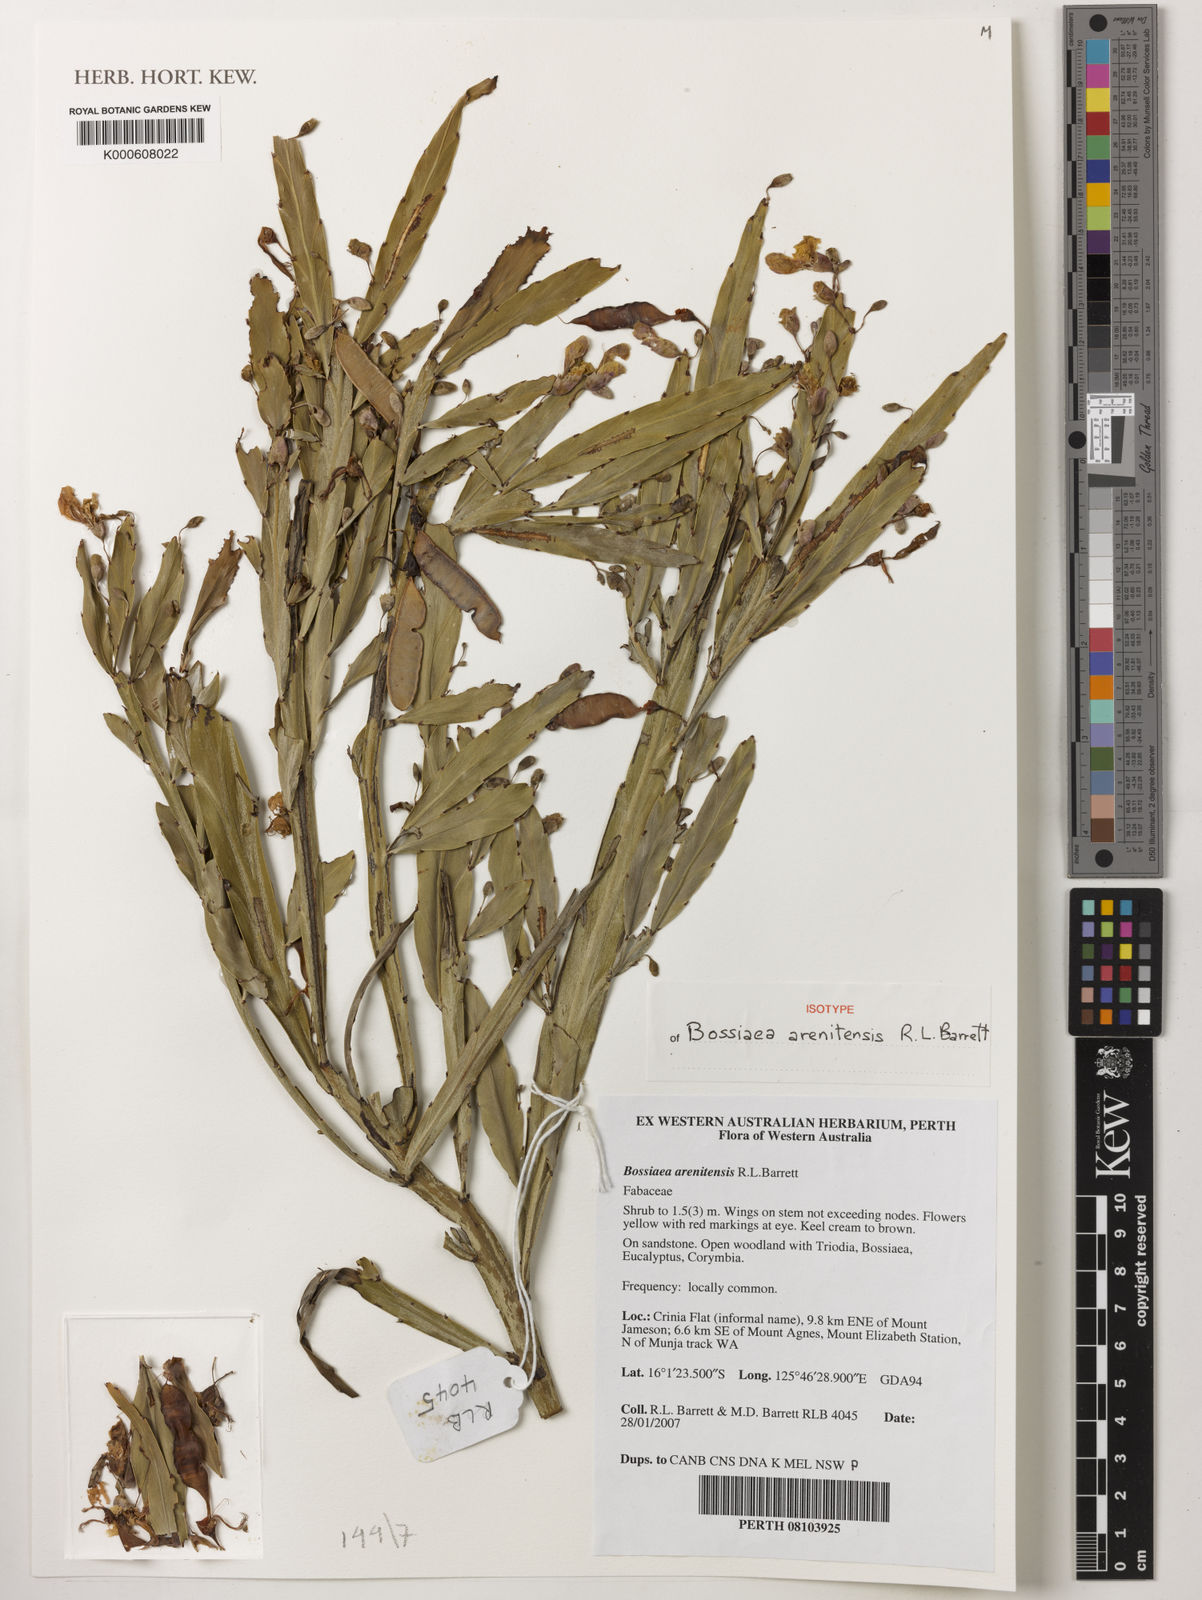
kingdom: Plantae
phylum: Tracheophyta
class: Magnoliopsida
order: Fabales
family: Fabaceae
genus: Bossiaea
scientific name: Bossiaea arenitensis
